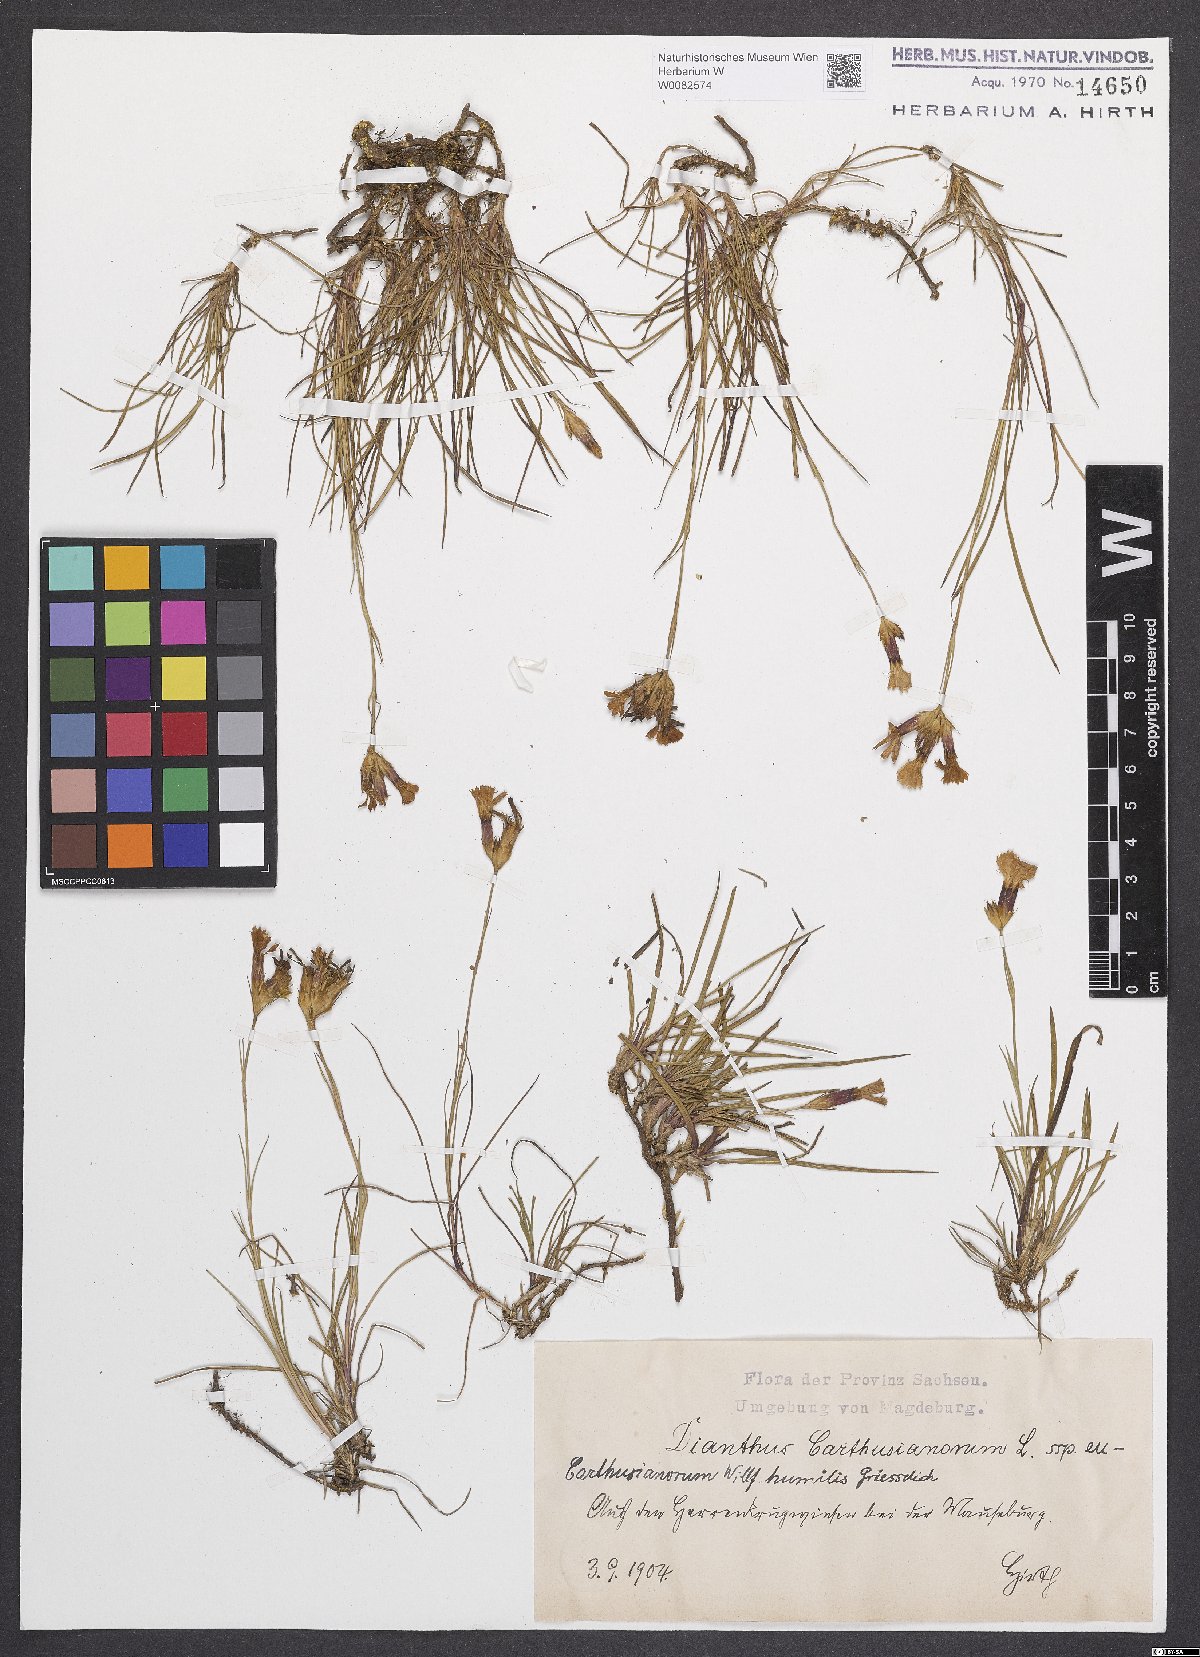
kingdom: Plantae
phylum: Tracheophyta
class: Magnoliopsida
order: Caryophyllales
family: Caryophyllaceae
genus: Dianthus
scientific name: Dianthus carthusianorum
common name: Carthusian pink
